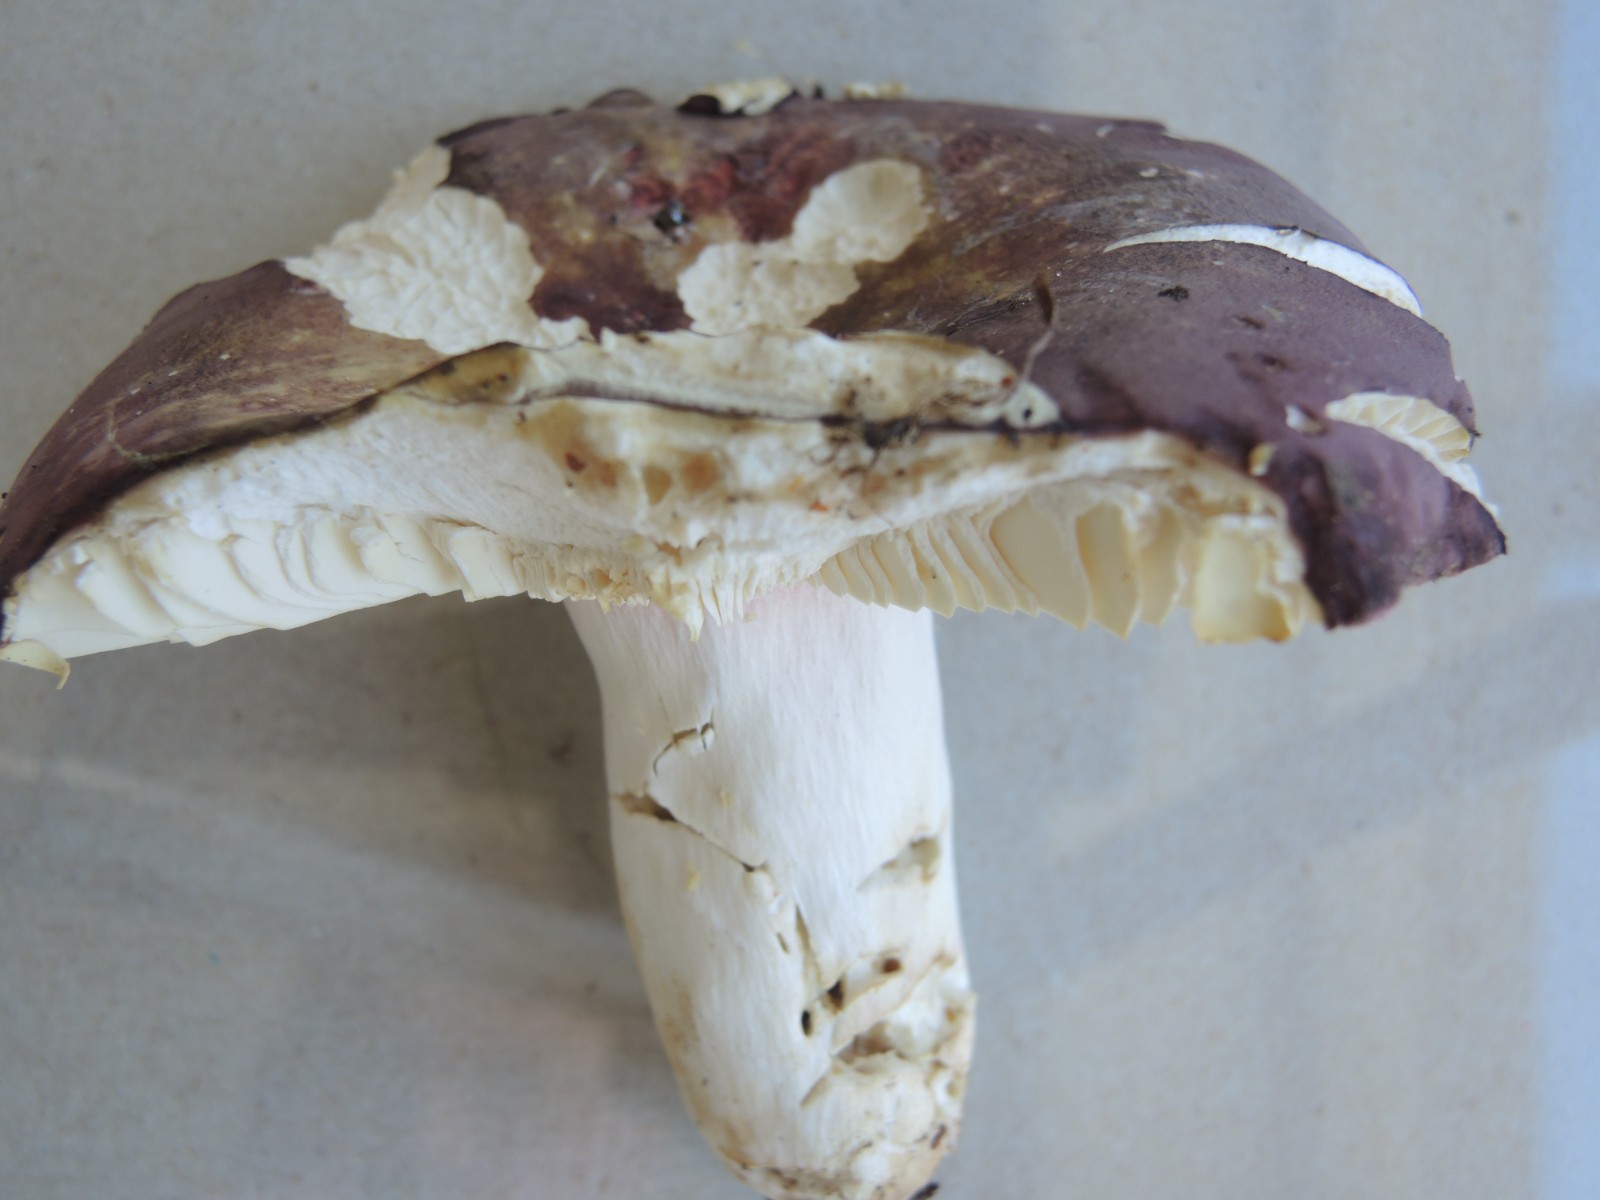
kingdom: Fungi
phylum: Basidiomycota
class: Agaricomycetes
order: Russulales
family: Russulaceae
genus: Russula
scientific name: Russula olivacea
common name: stor skørhat
